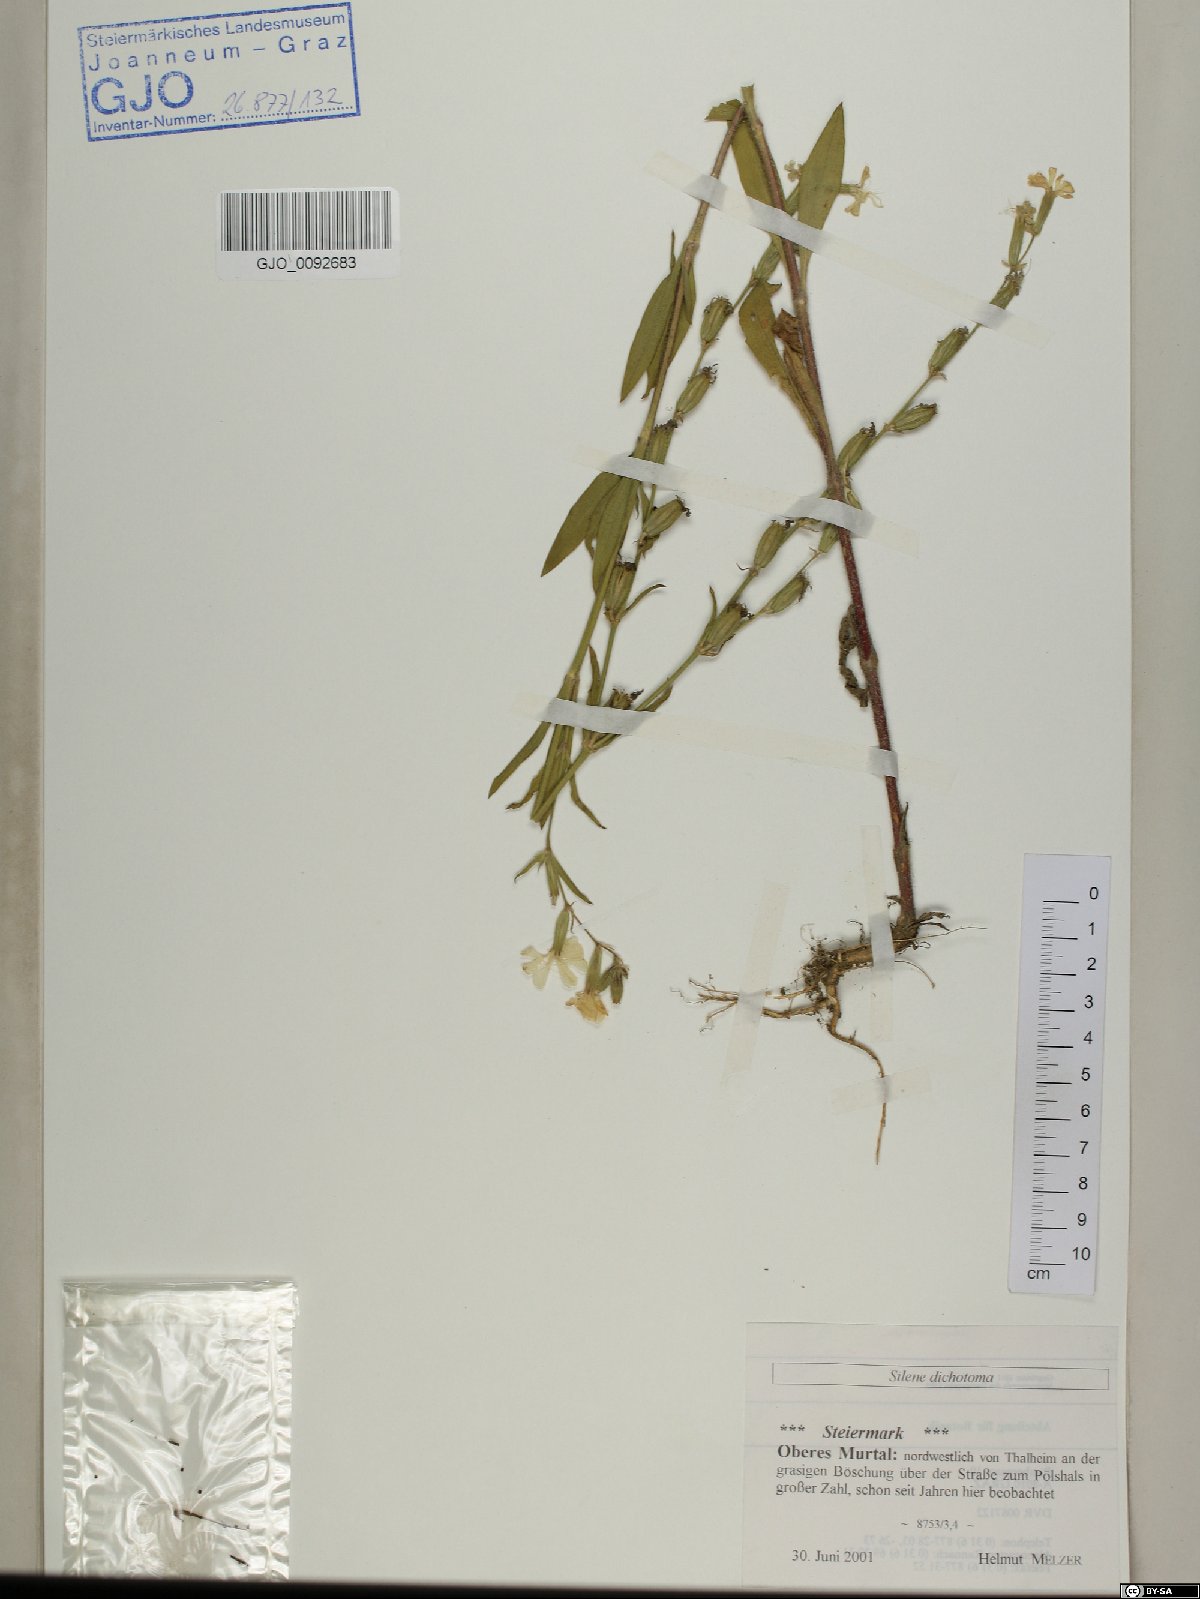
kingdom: Plantae
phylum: Tracheophyta
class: Magnoliopsida
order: Caryophyllales
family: Caryophyllaceae
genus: Silene
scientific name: Silene dichotoma
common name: Forked catchfly
